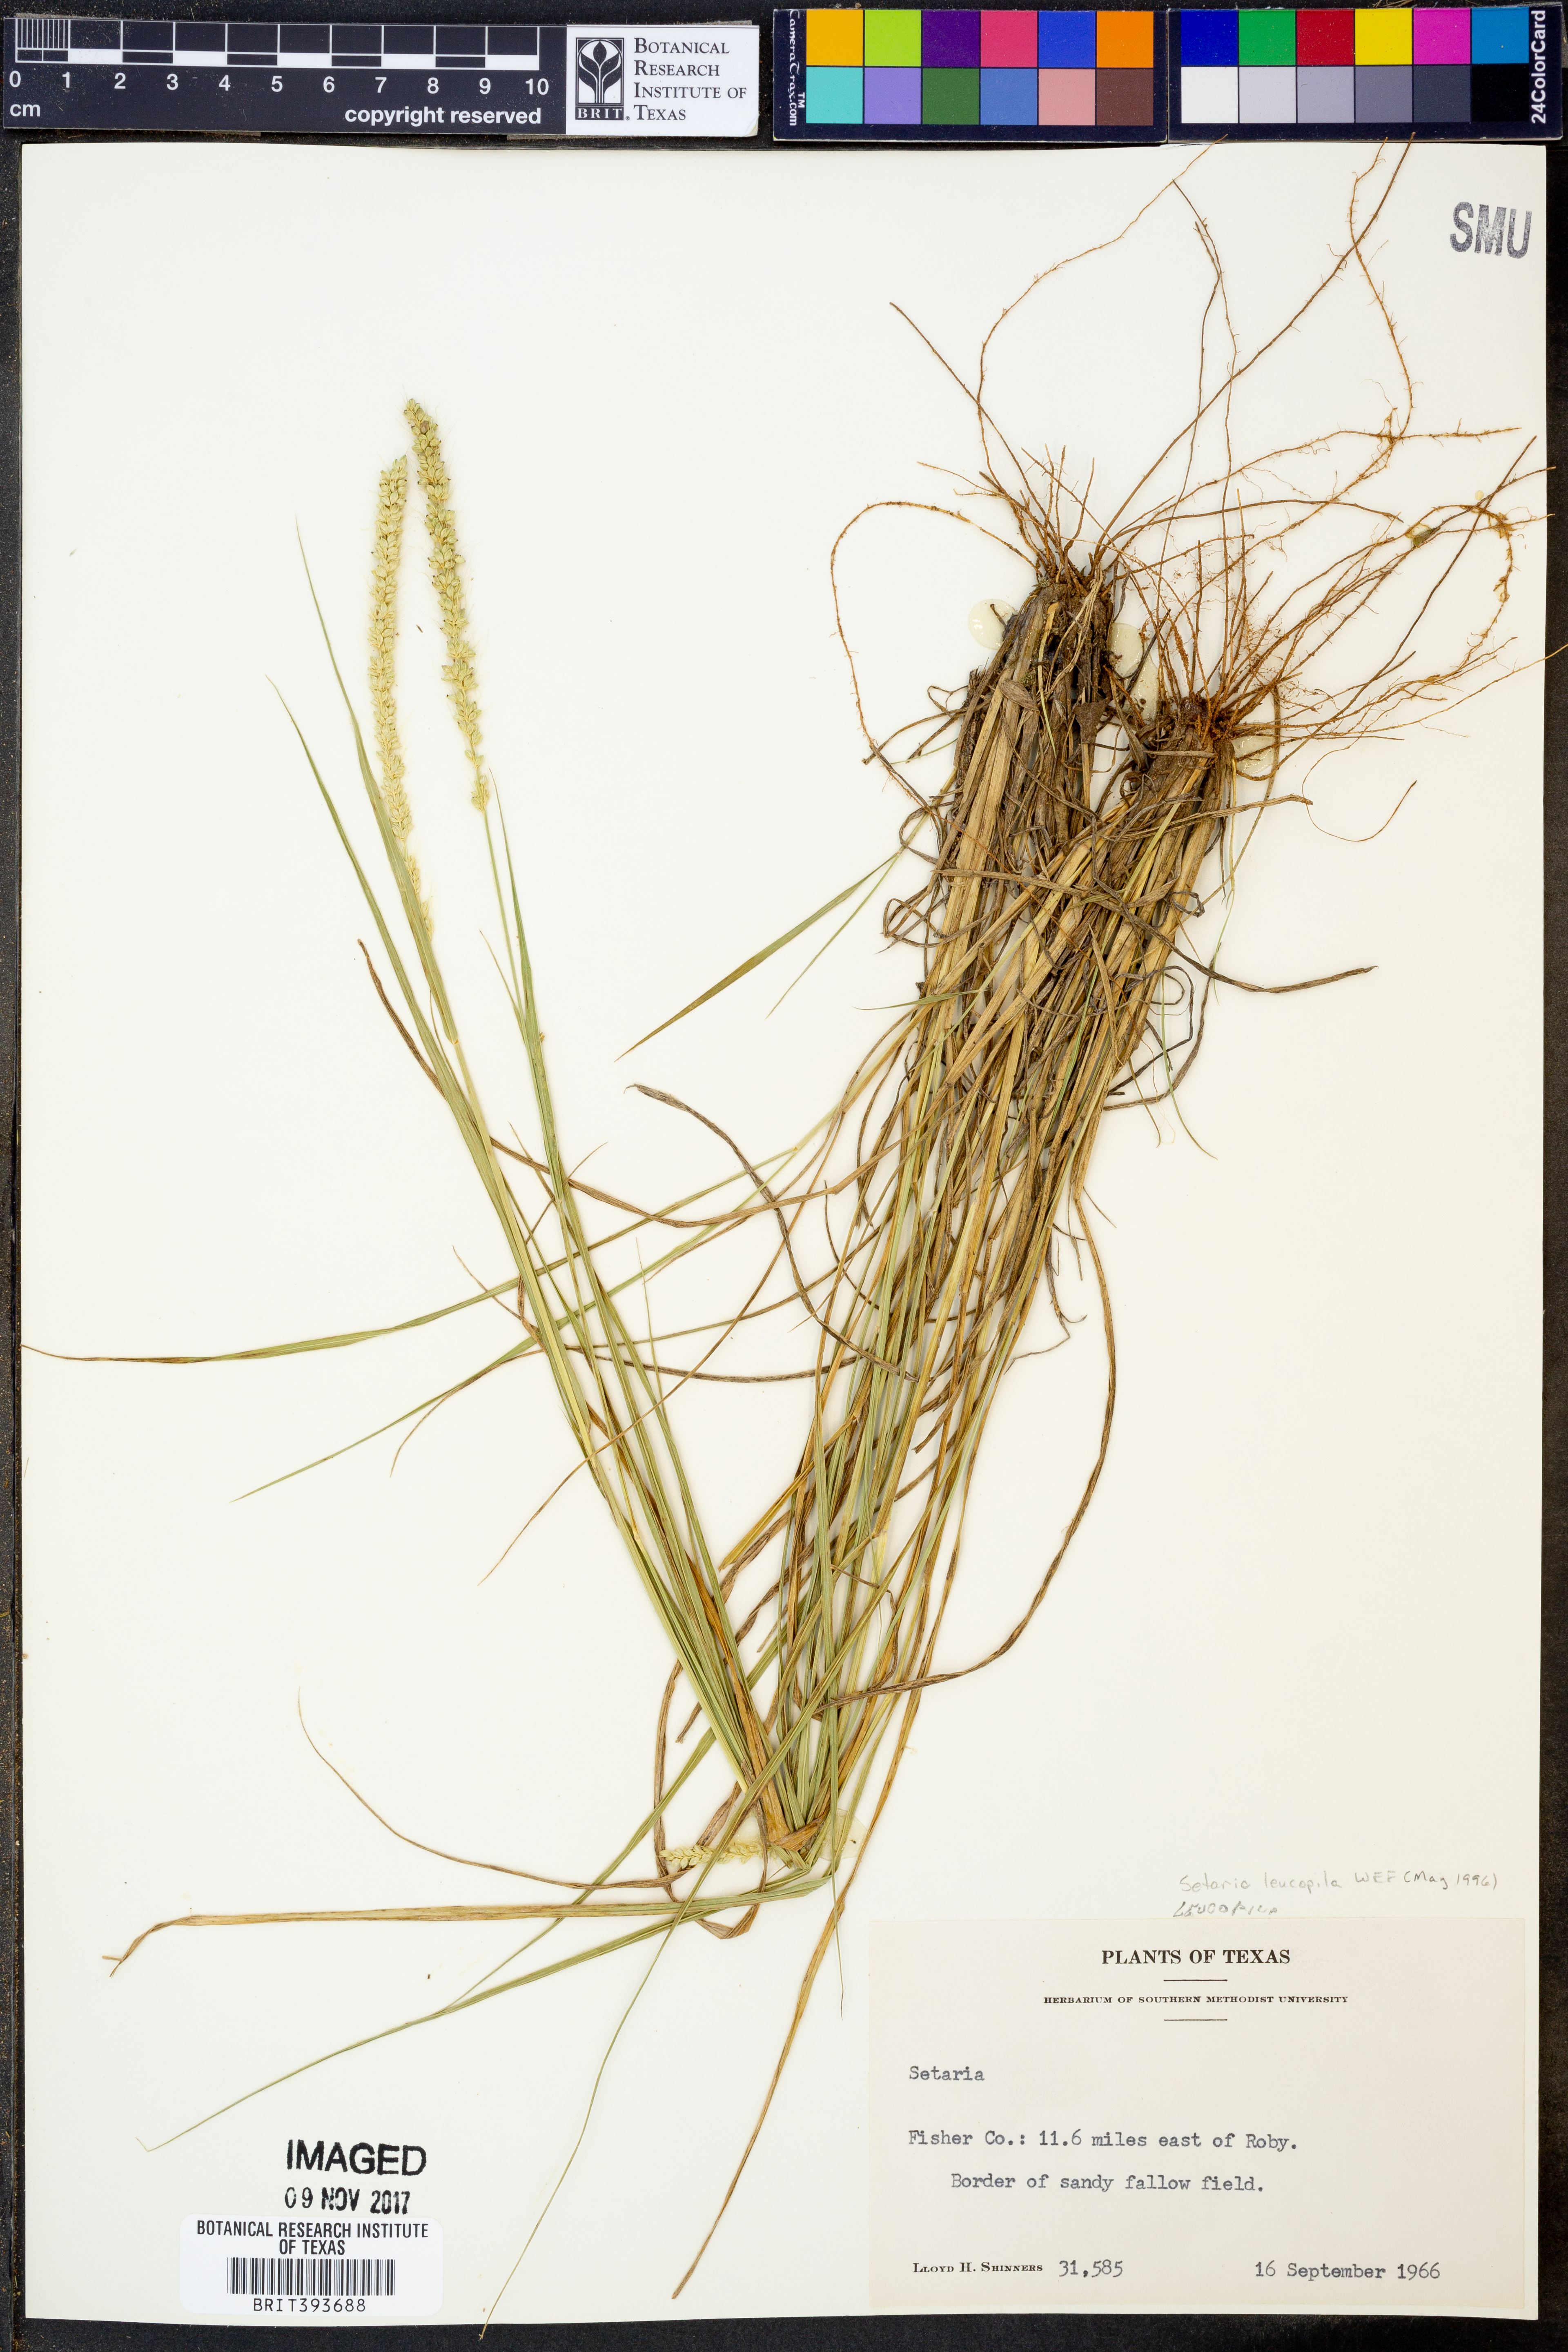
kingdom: Plantae
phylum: Tracheophyta
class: Liliopsida
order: Poales
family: Poaceae
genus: Setaria
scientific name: Setaria leucopila
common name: Plains bristle grass
